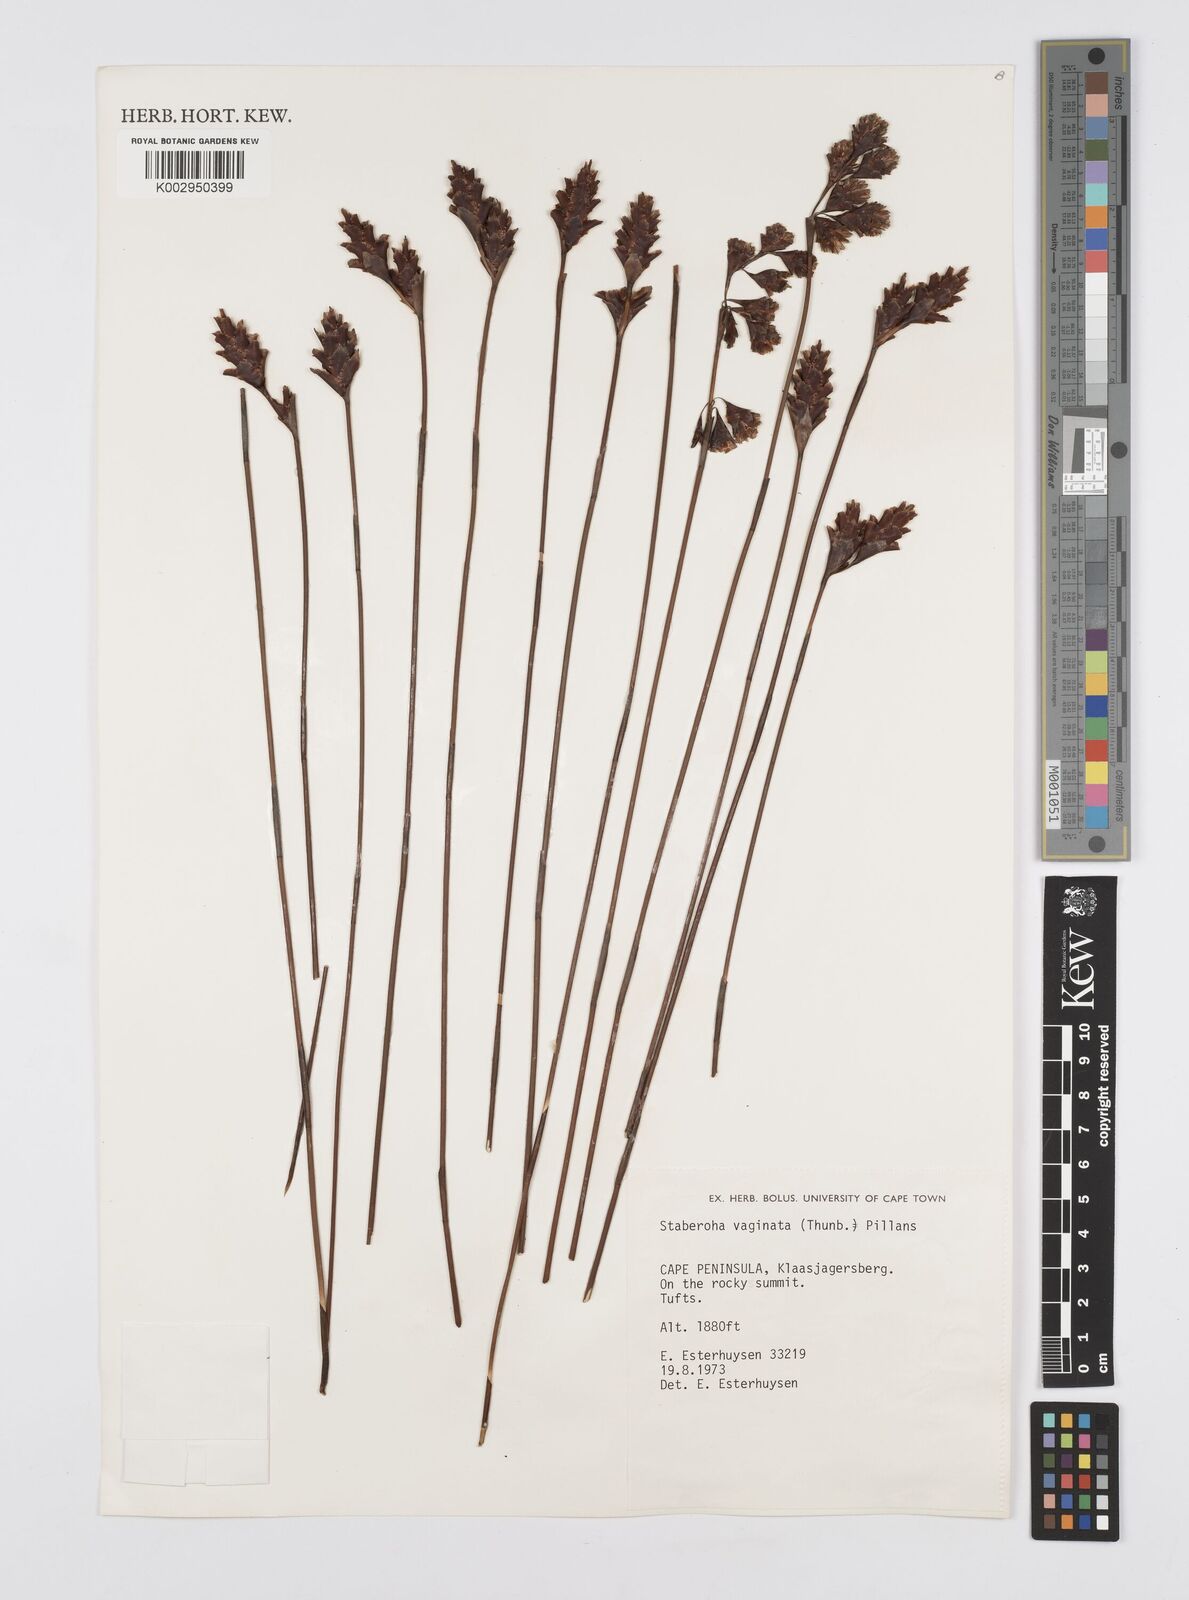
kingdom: Plantae
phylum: Tracheophyta
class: Liliopsida
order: Poales
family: Restionaceae
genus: Staberoha
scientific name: Staberoha vaginata
